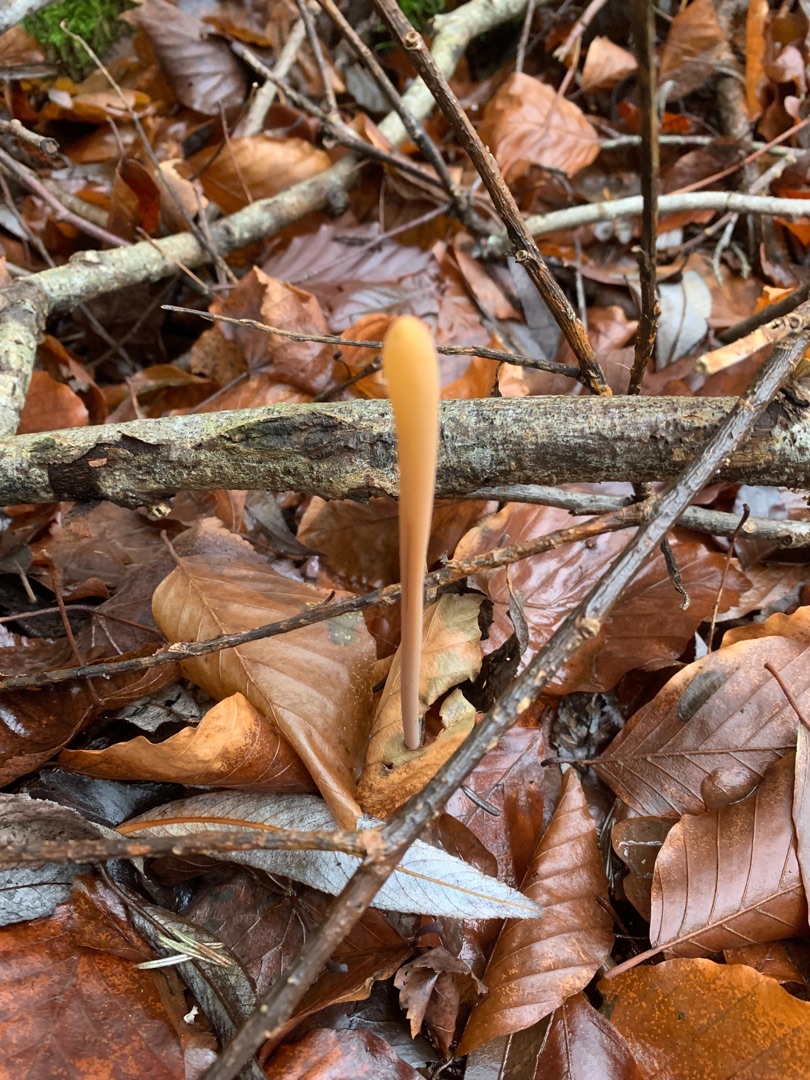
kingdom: Fungi
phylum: Basidiomycota
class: Agaricomycetes
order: Agaricales
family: Typhulaceae
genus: Typhula
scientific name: Typhula fistulosa
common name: Pibet rørkølle
